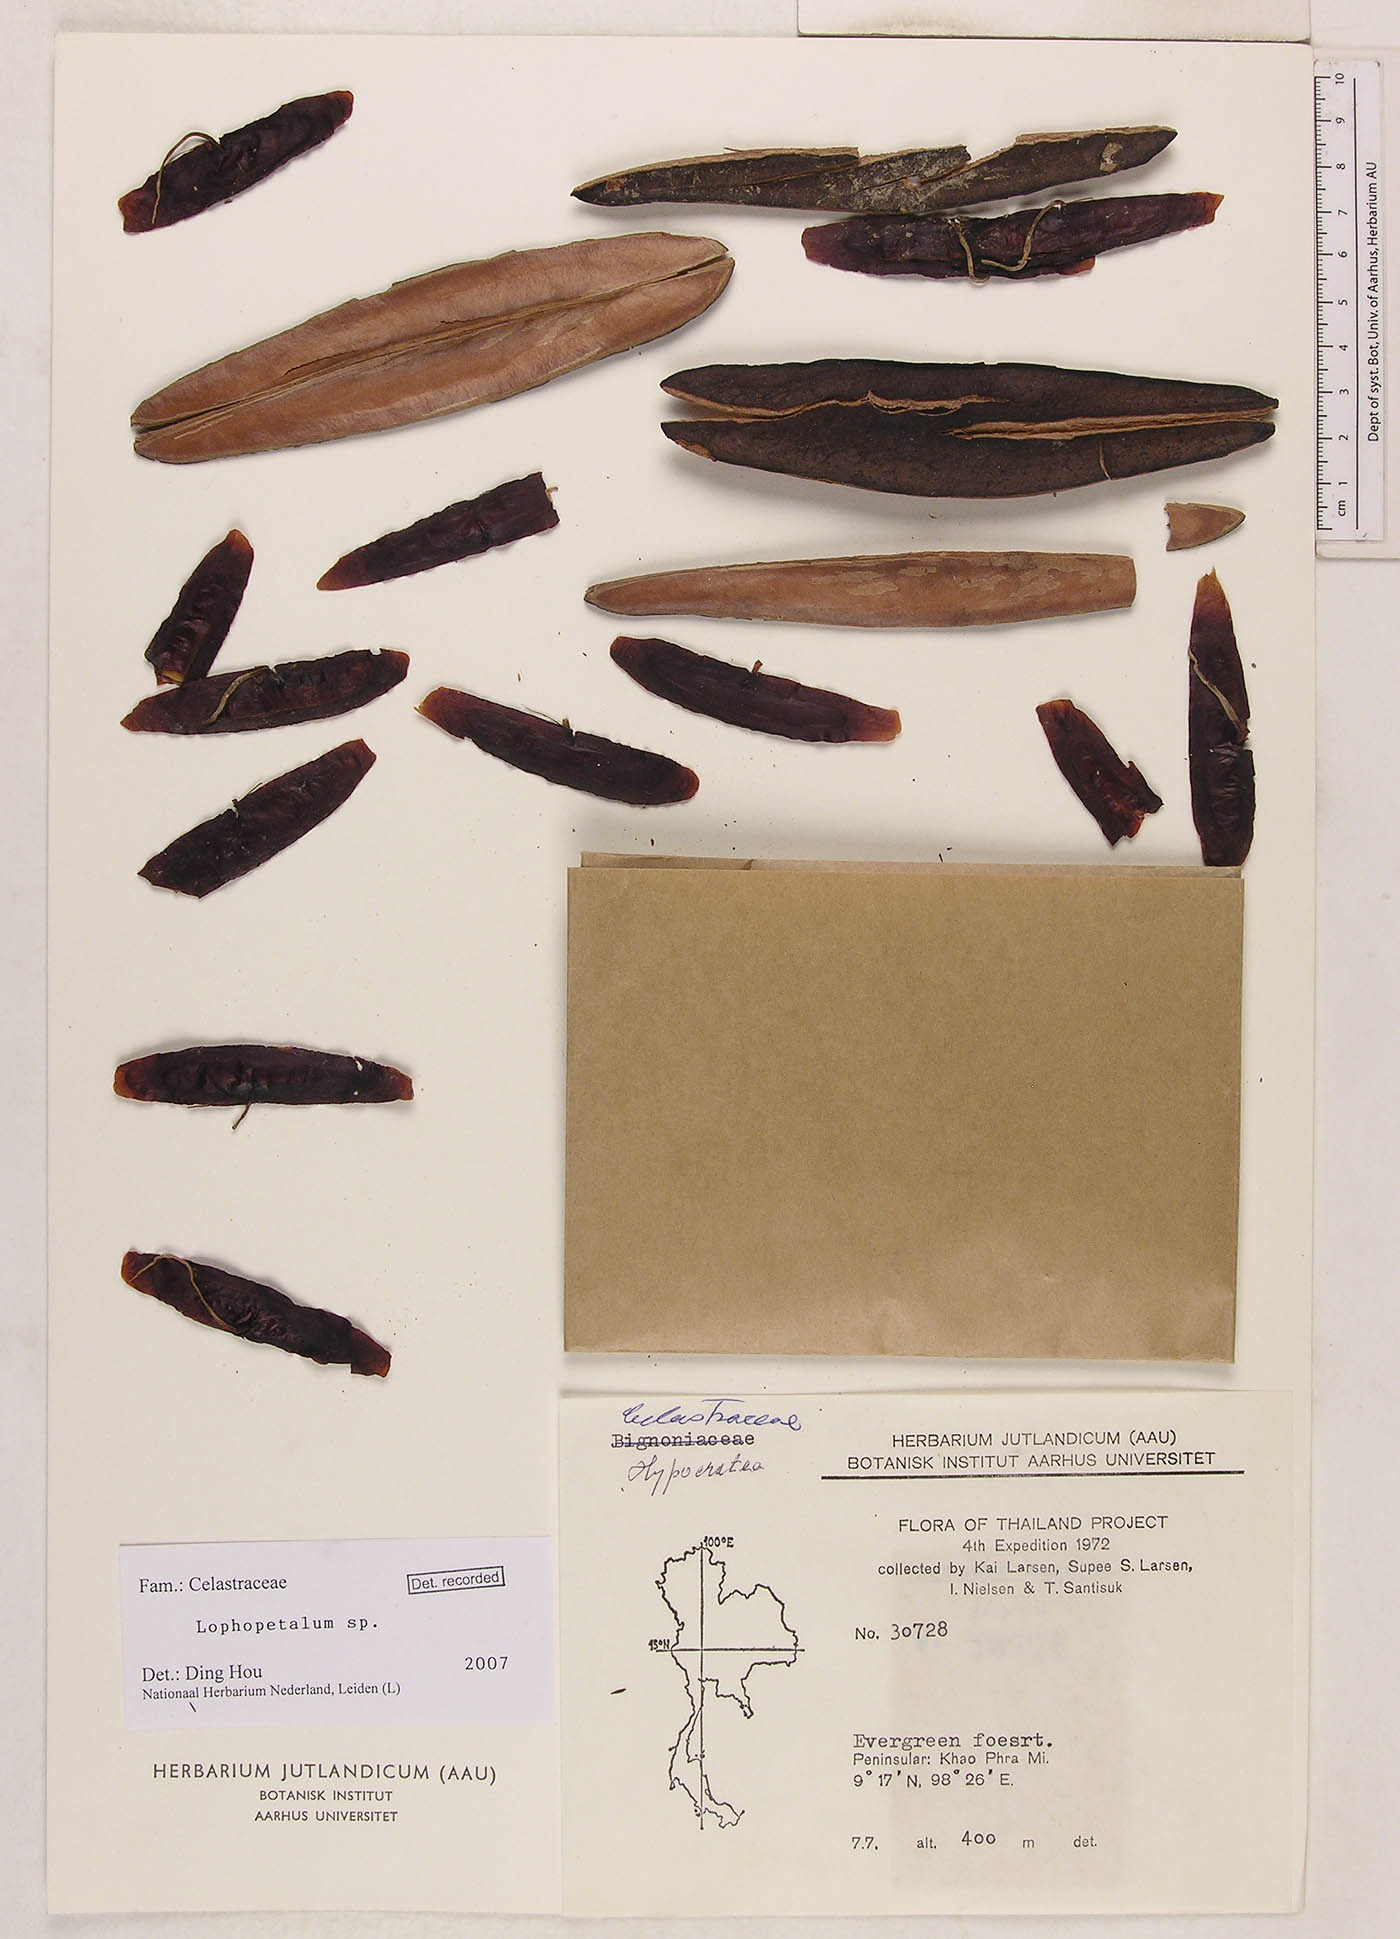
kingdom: Plantae
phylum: Tracheophyta
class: Magnoliopsida
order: Celastrales
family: Celastraceae
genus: Lophopetalum
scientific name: Lophopetalum
